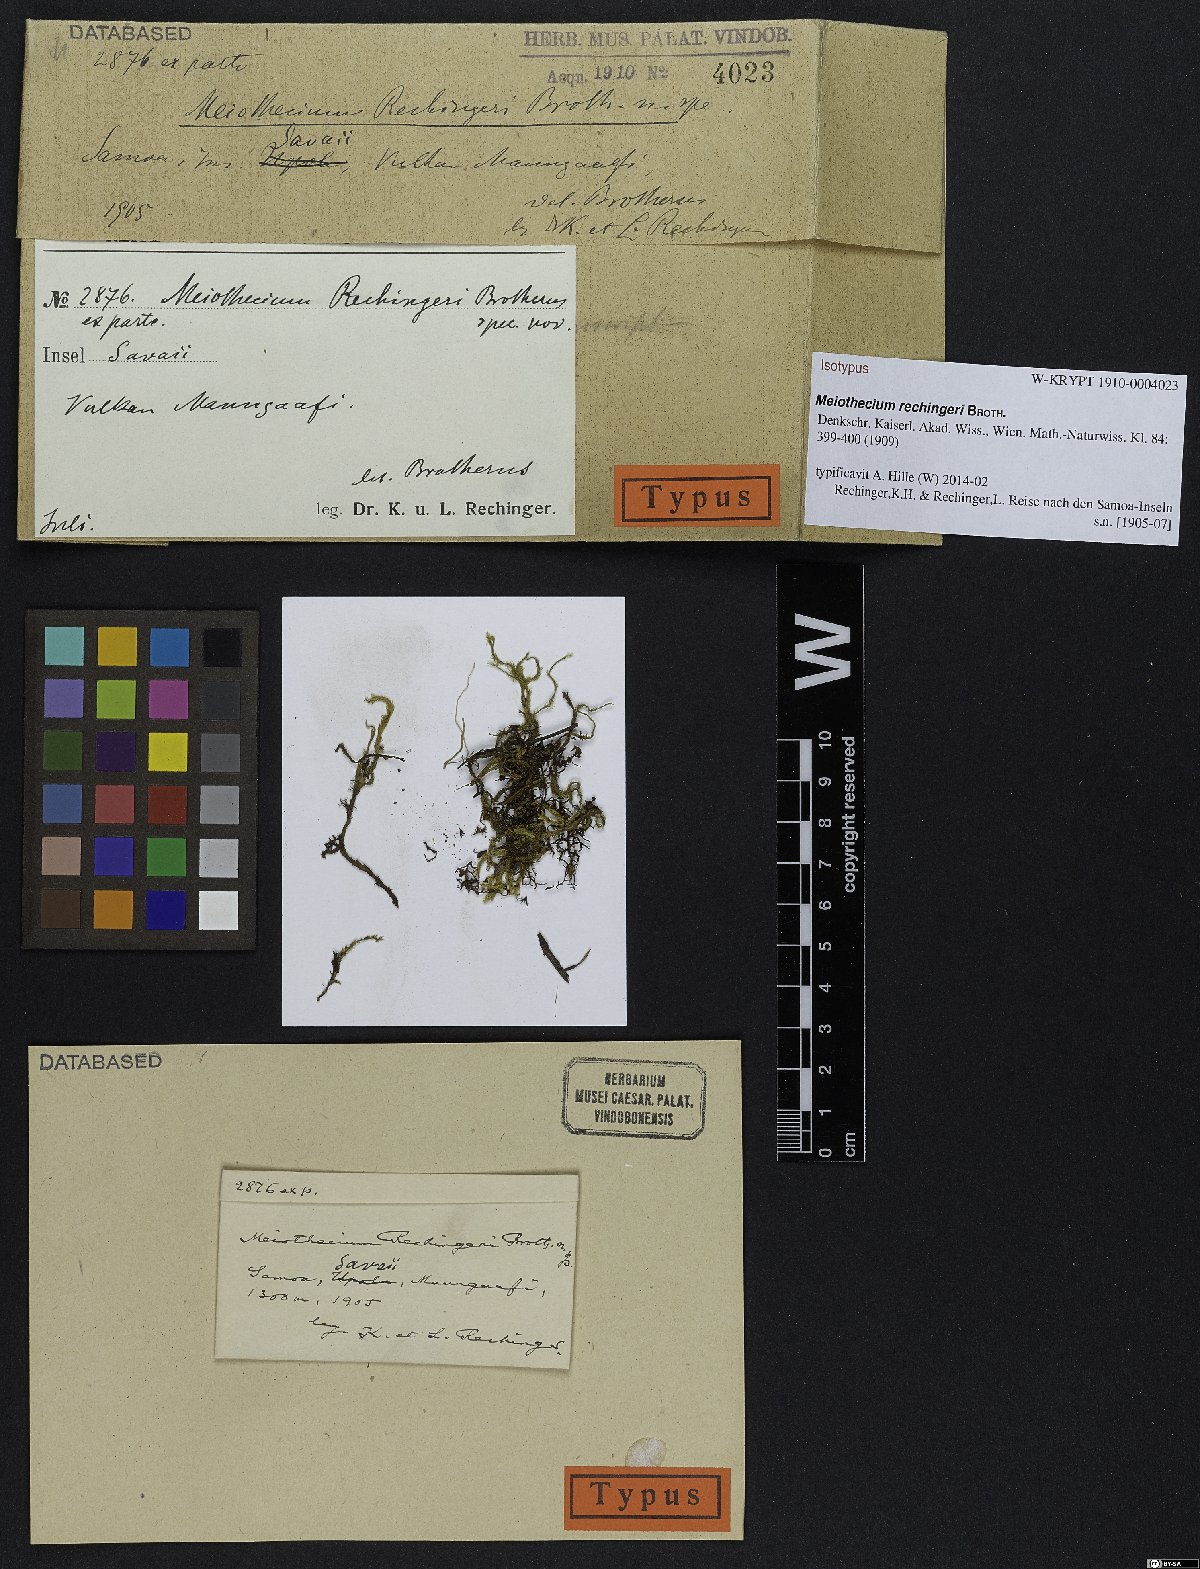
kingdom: Plantae
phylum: Bryophyta
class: Bryopsida
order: Hypnales
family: Sematophyllaceae
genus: Meiothecium
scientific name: Meiothecium hamatum
